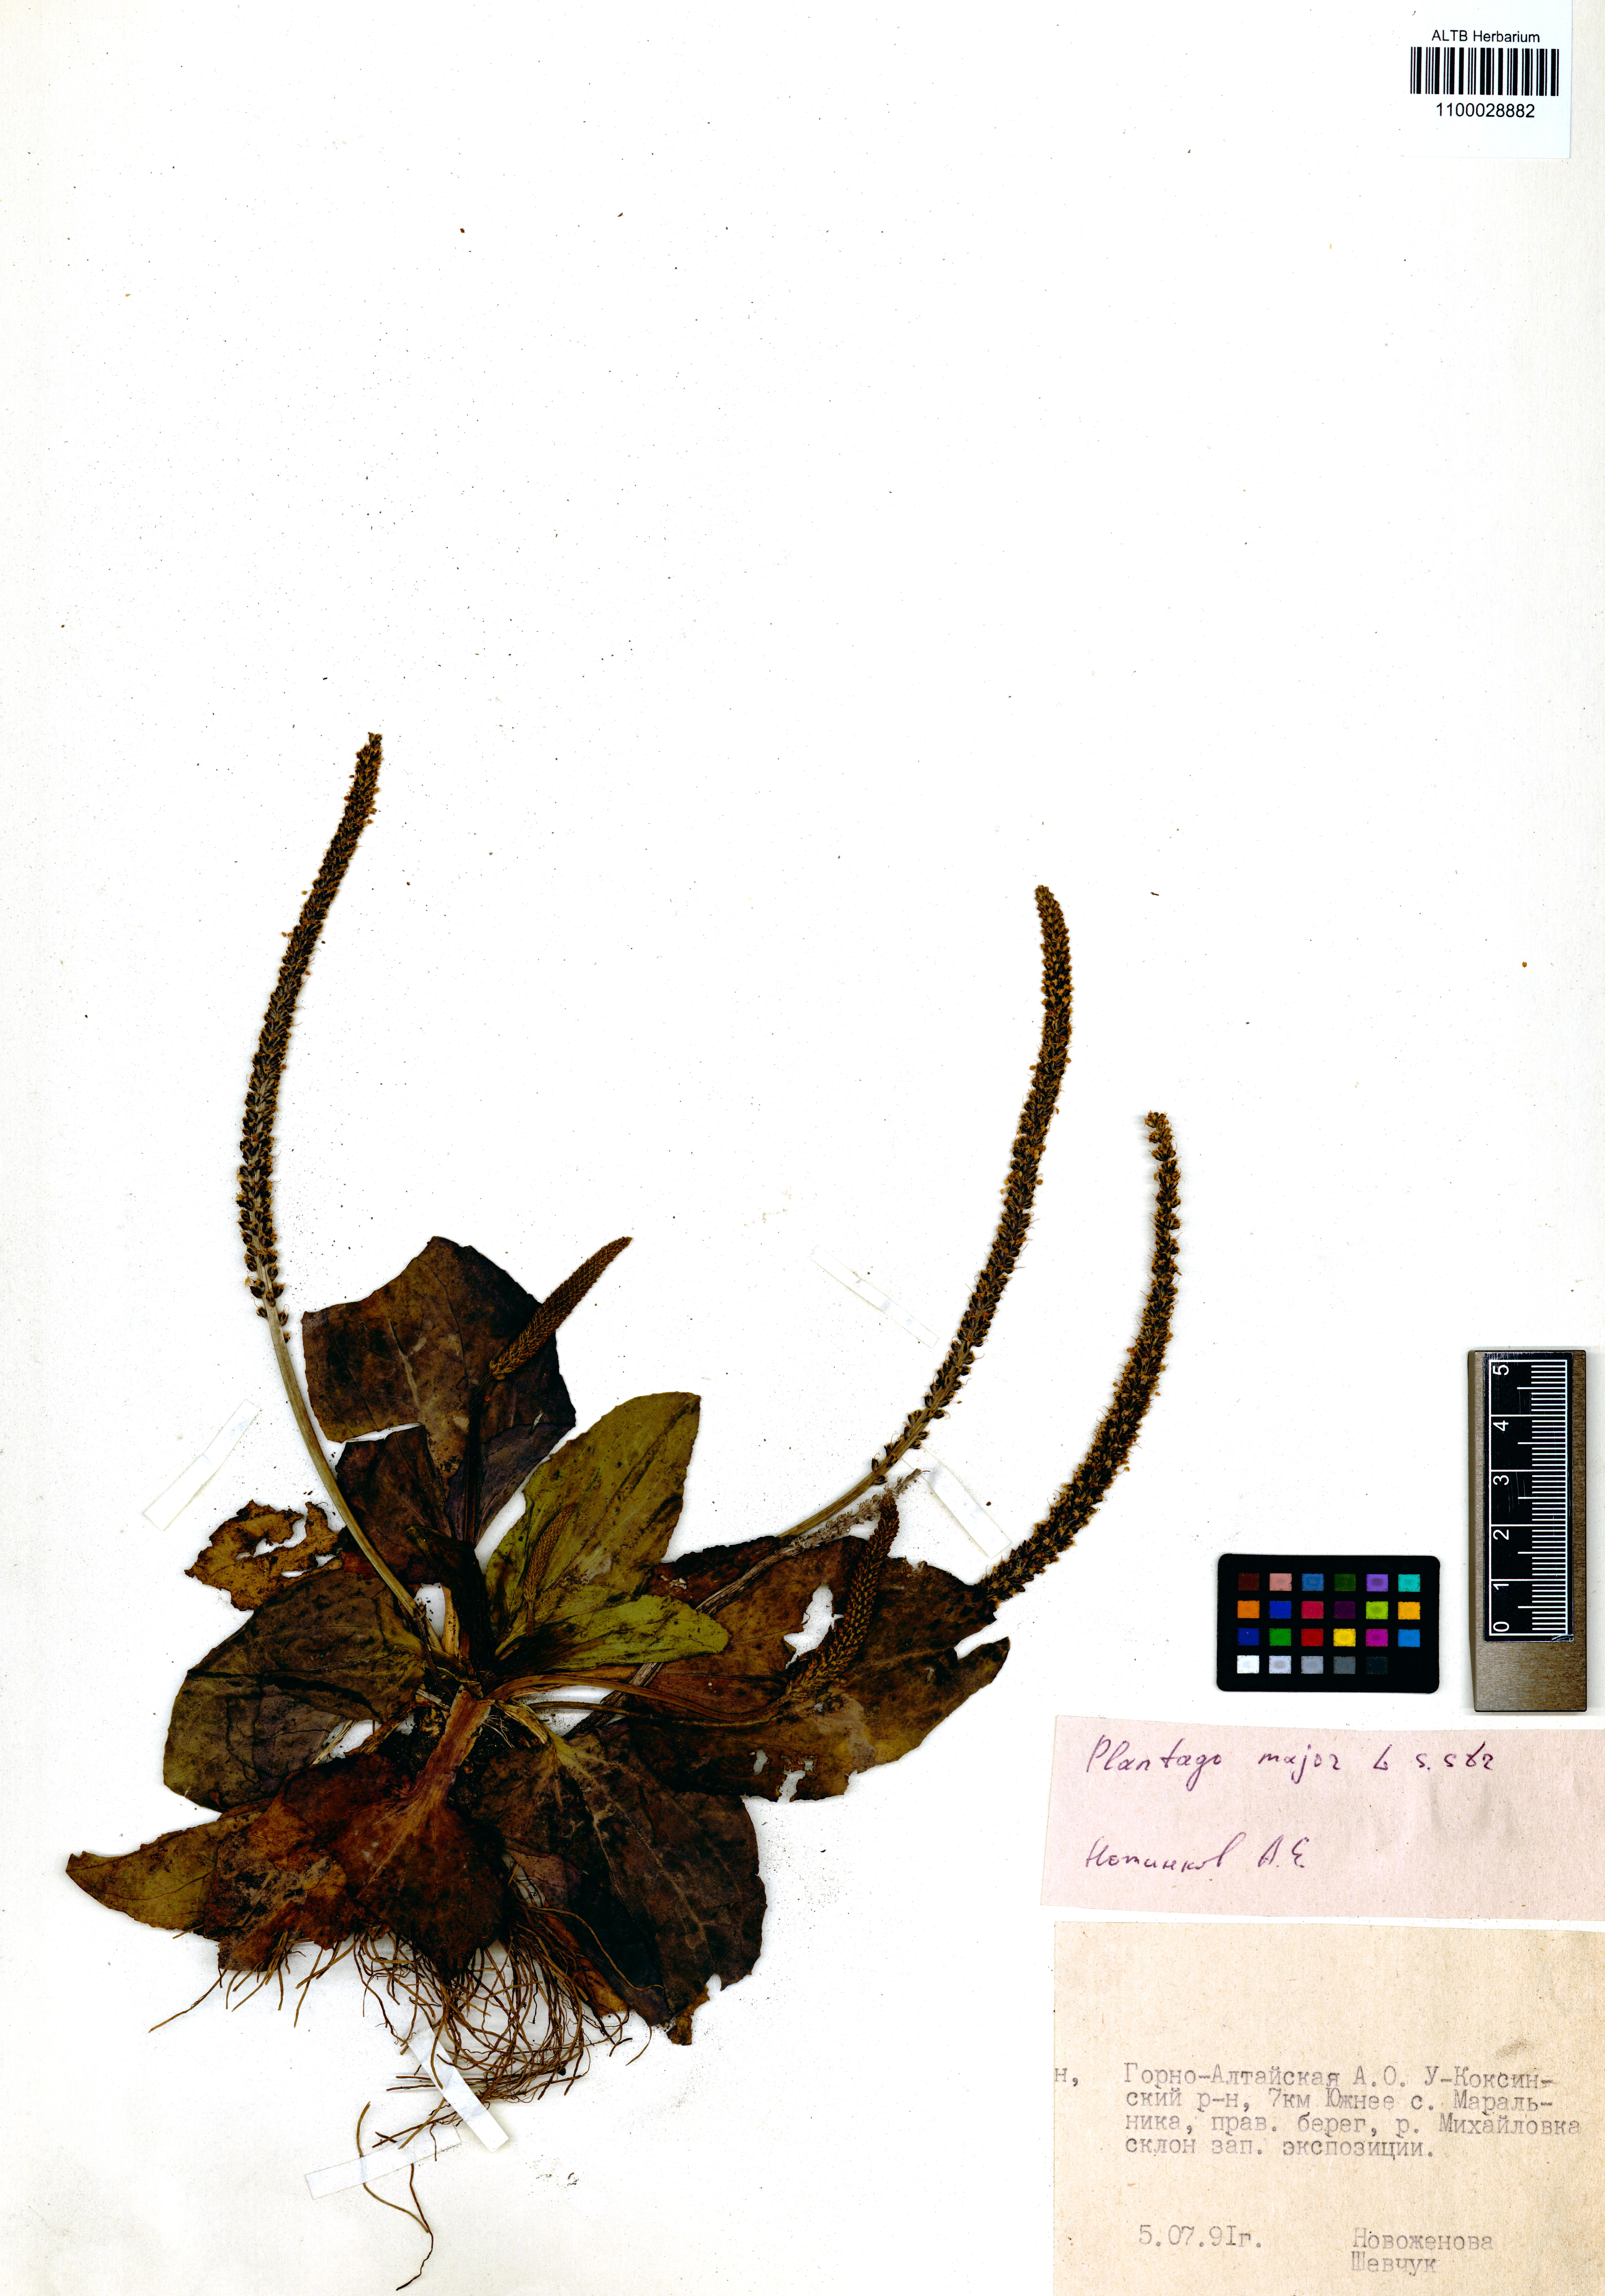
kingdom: Plantae
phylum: Tracheophyta
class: Magnoliopsida
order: Lamiales
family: Plantaginaceae
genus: Plantago
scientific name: Plantago major
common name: Common plantain
